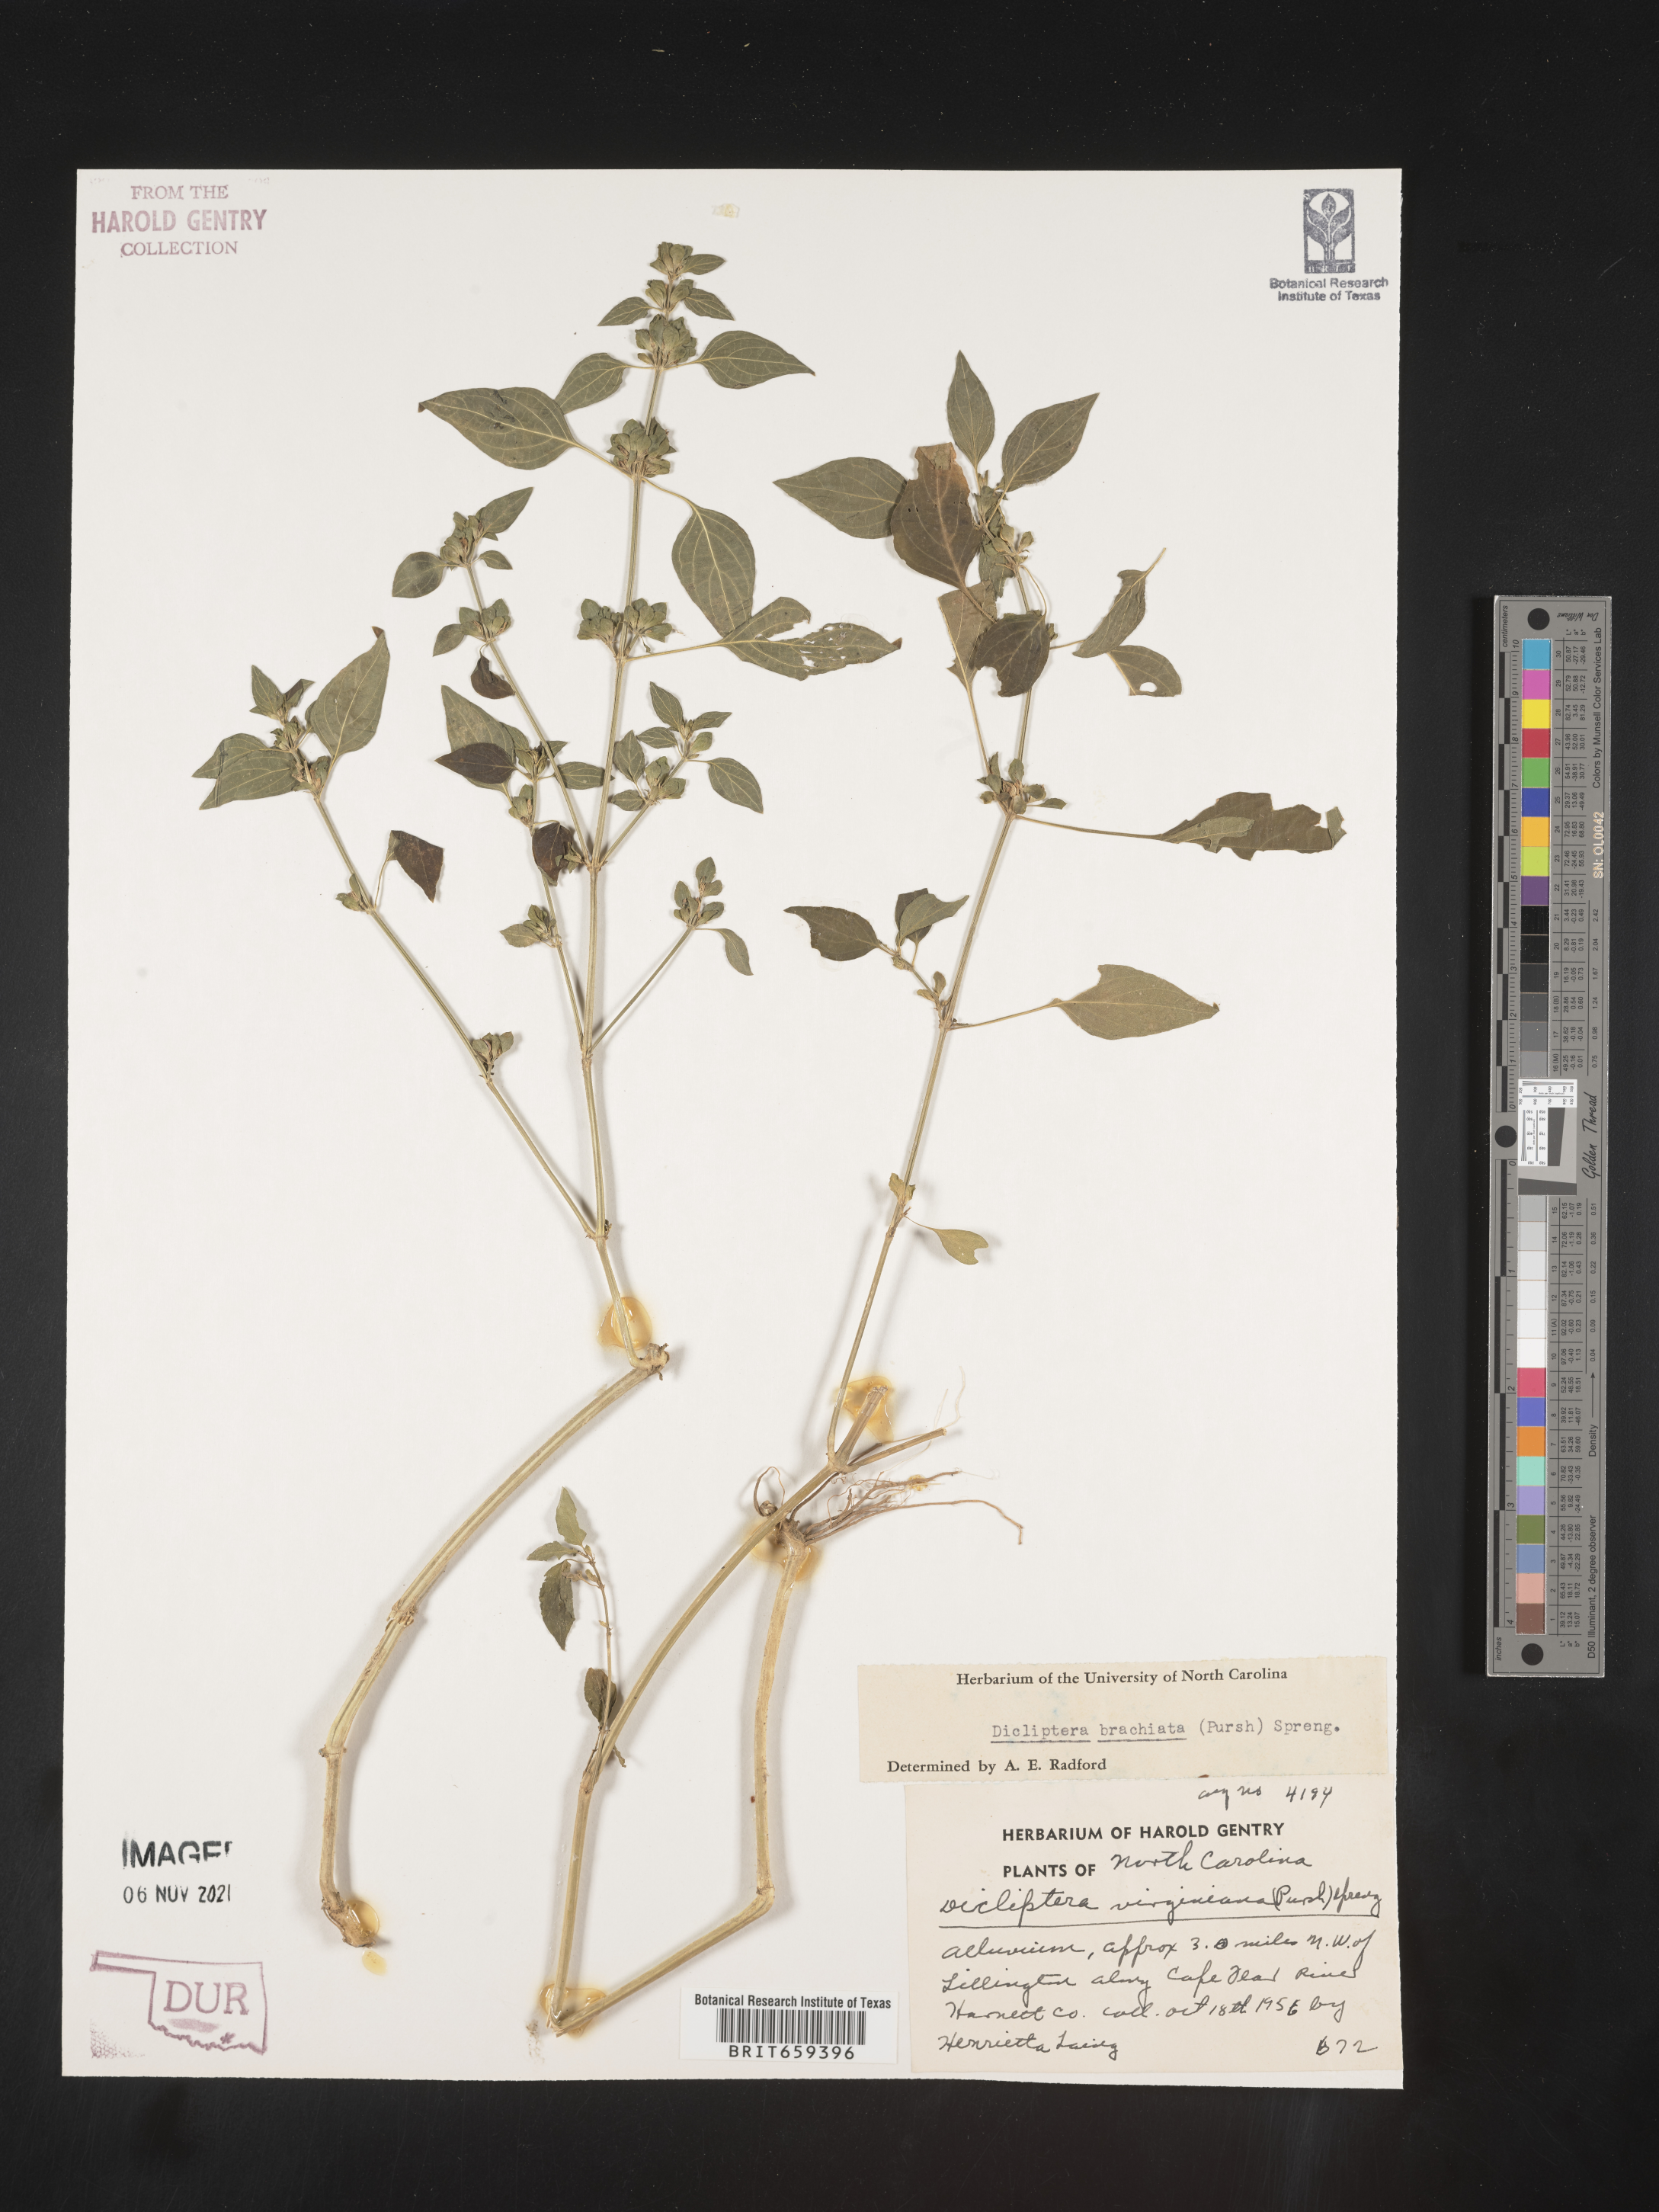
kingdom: Plantae
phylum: Tracheophyta
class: Magnoliopsida
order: Lamiales
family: Acanthaceae
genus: Dicliptera
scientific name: Dicliptera brachiata
